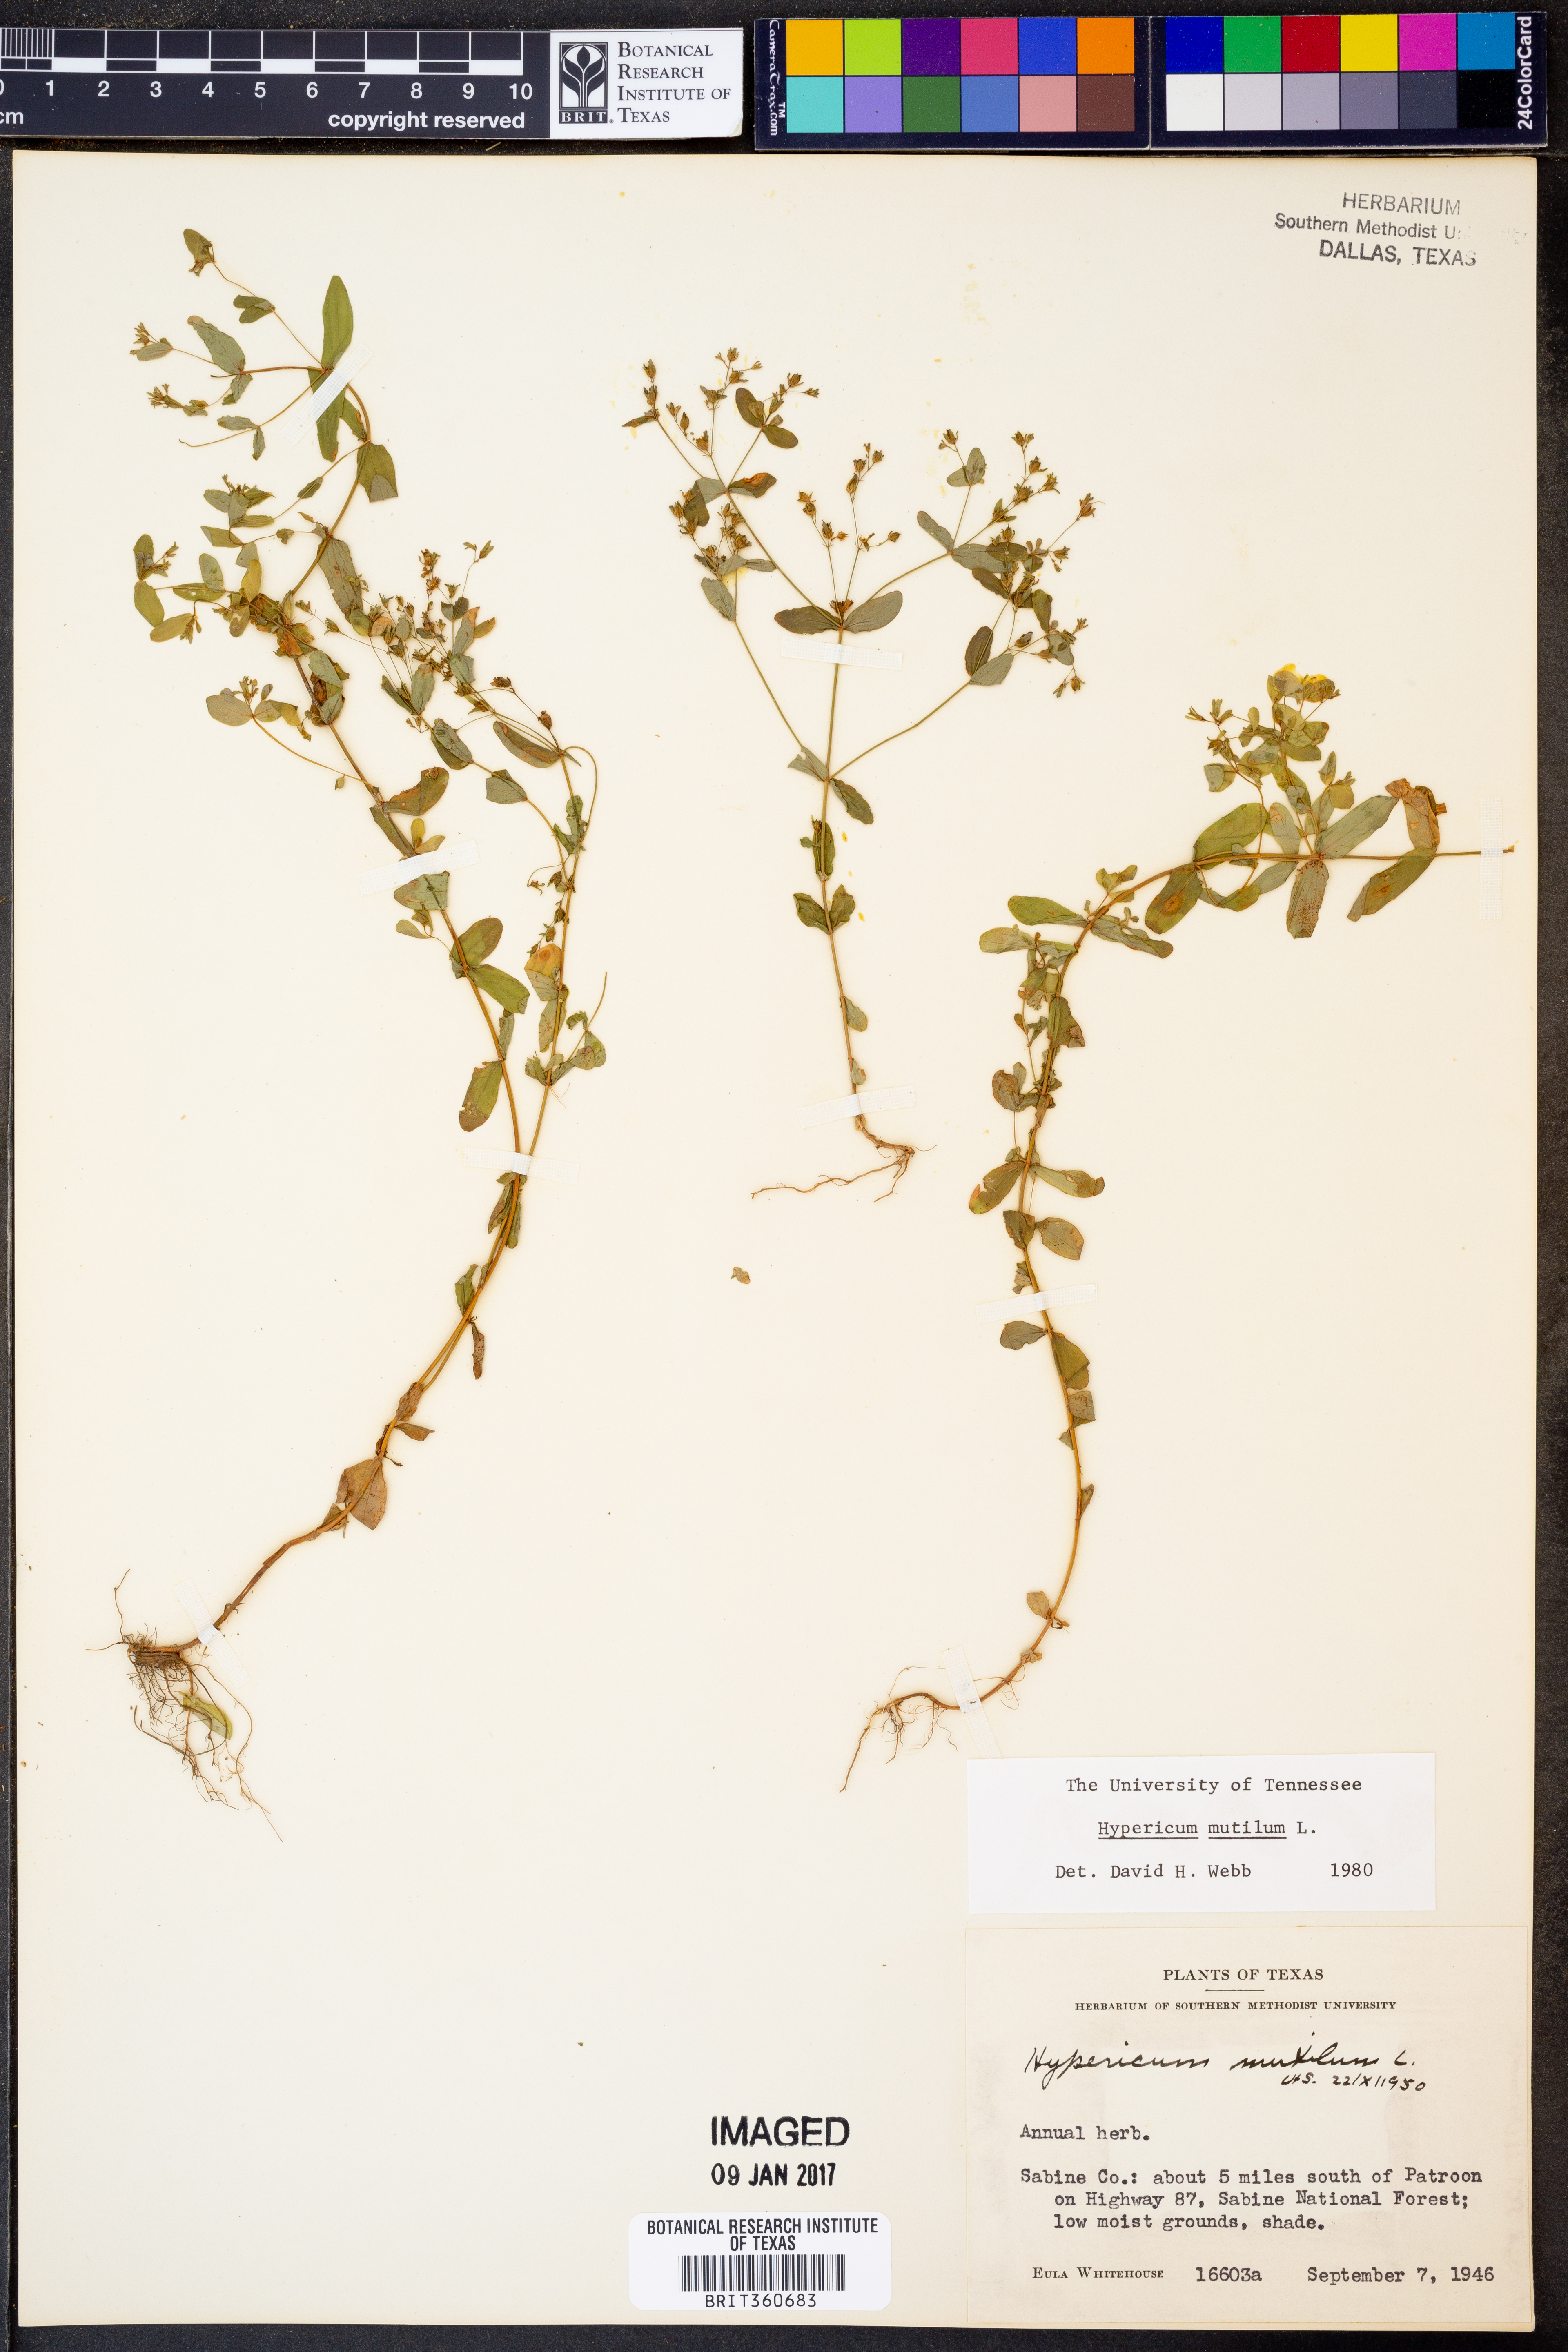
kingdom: Plantae
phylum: Tracheophyta
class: Magnoliopsida
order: Malpighiales
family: Hypericaceae
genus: Hypericum
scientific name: Hypericum mutilum
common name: Dwarf st. john's-wort
